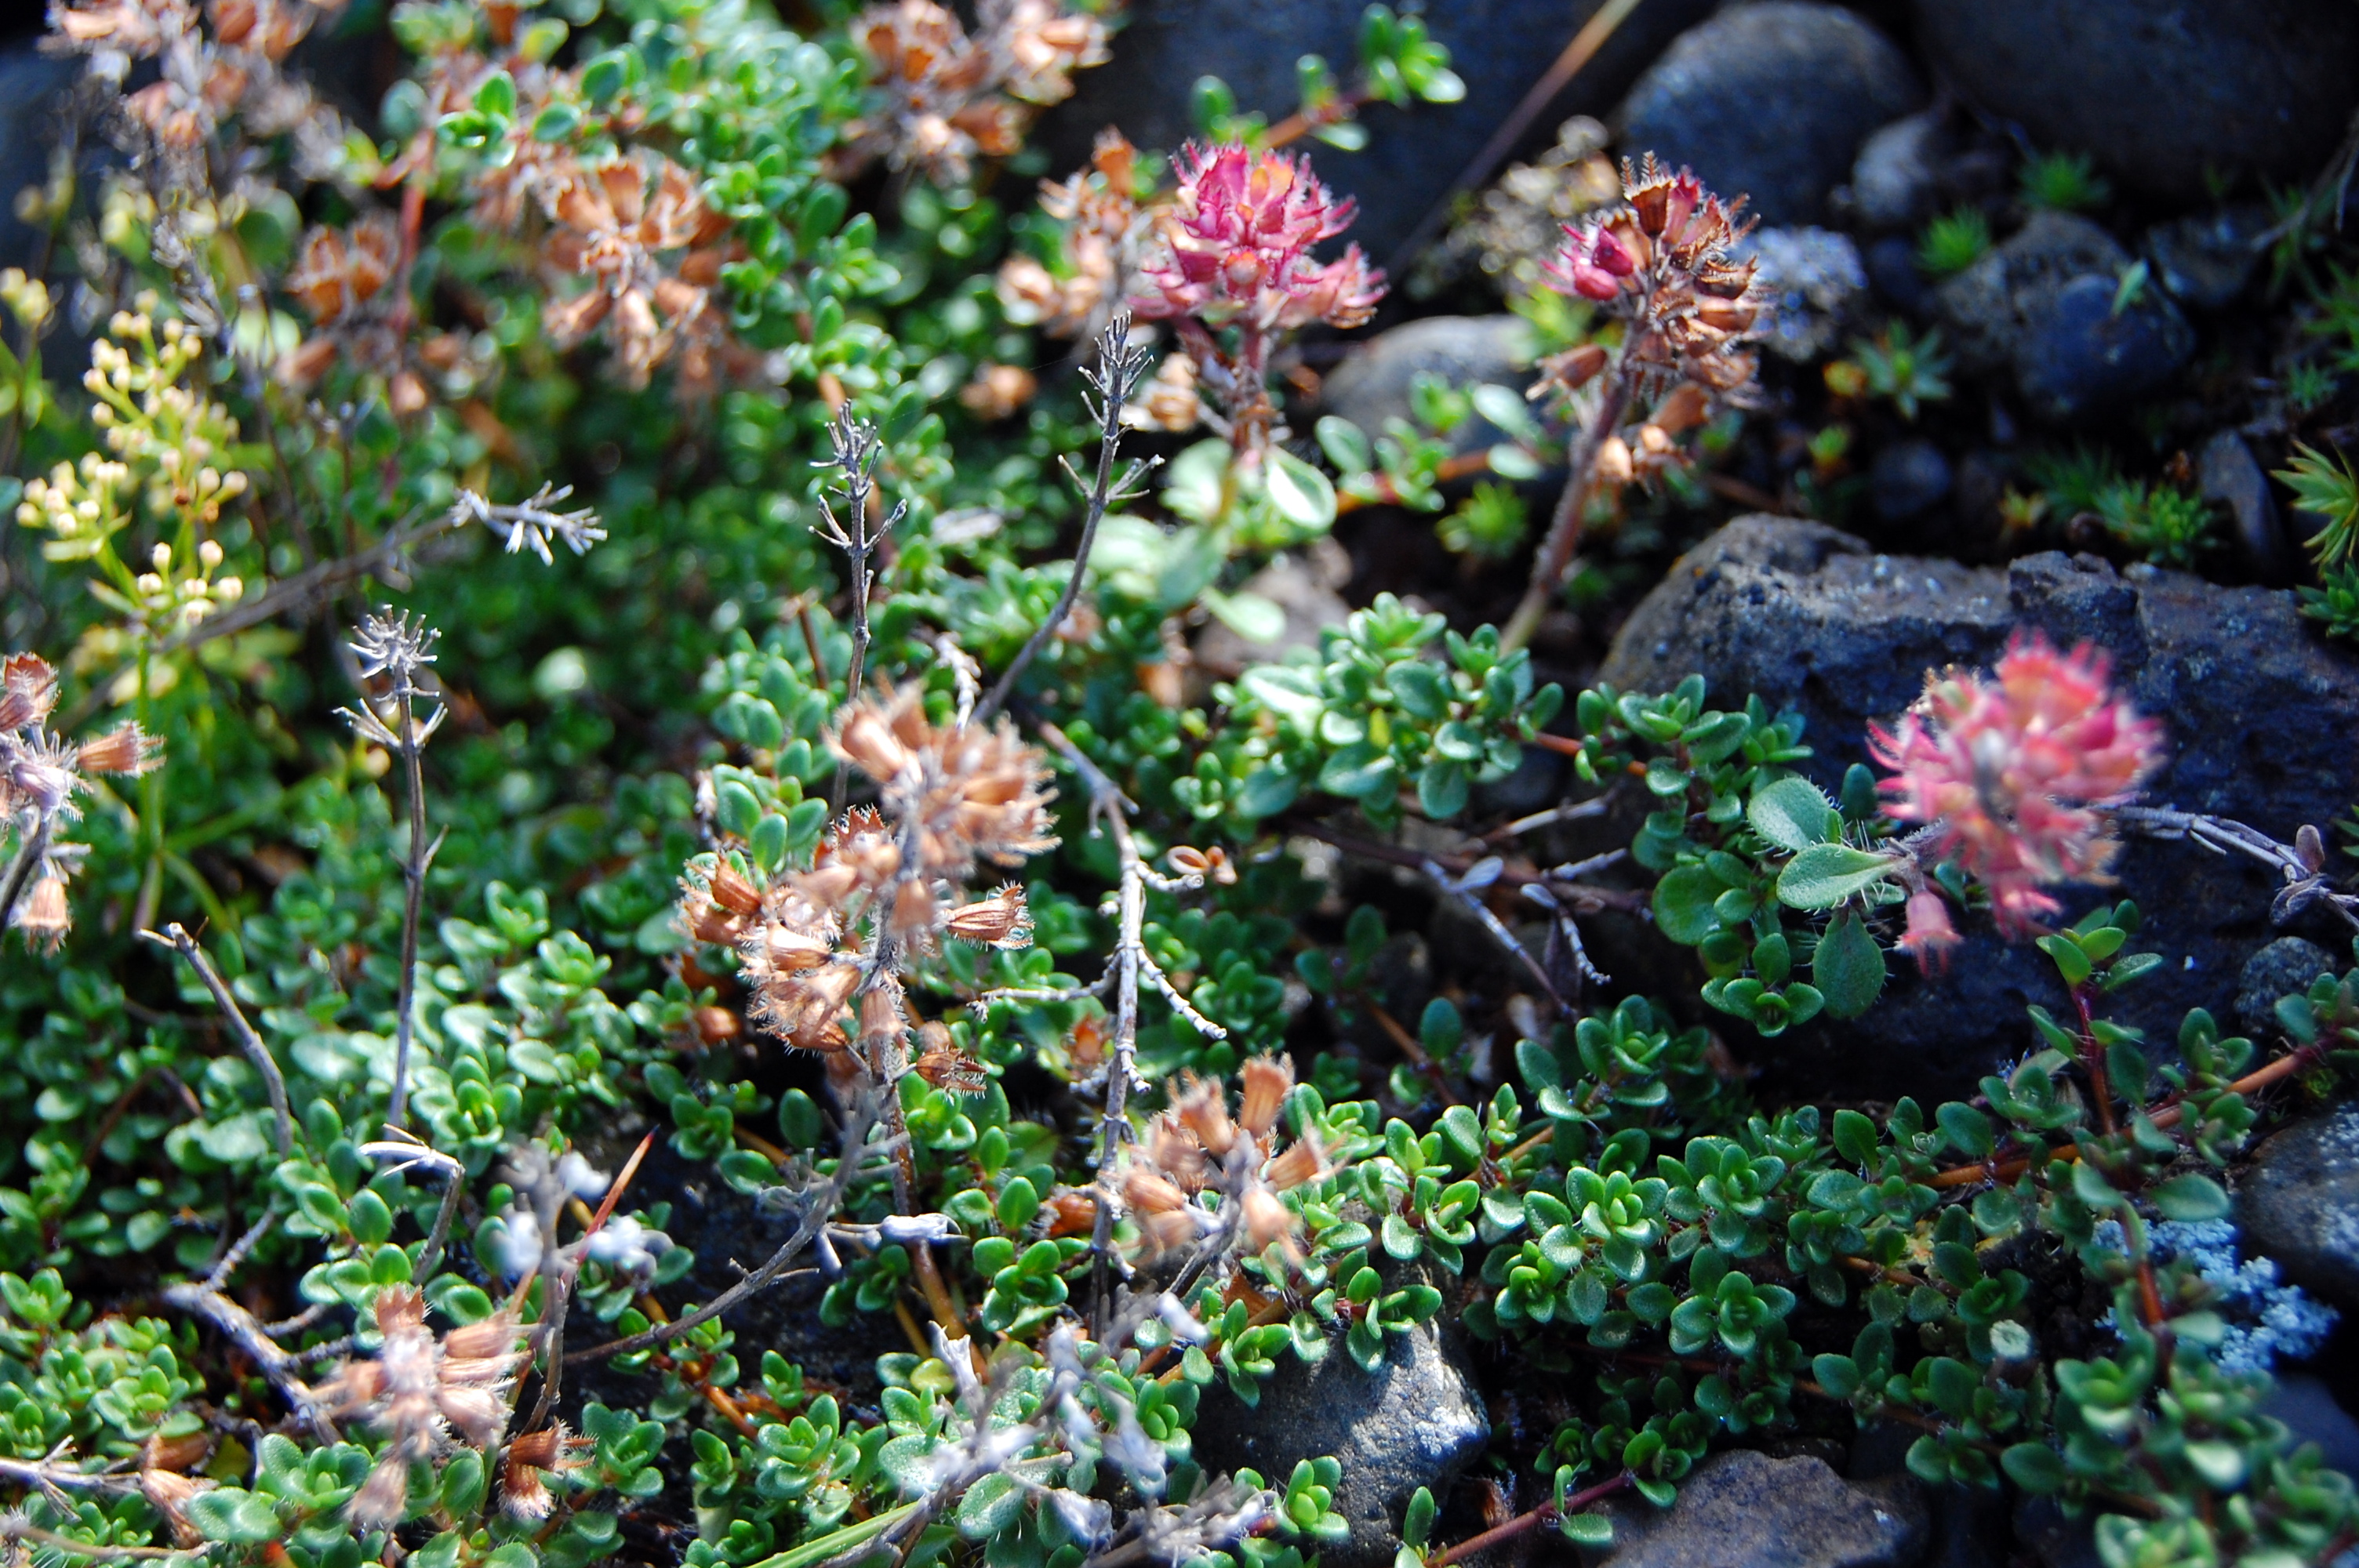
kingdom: Plantae
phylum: Tracheophyta
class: Magnoliopsida
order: Lamiales
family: Lamiaceae
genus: Thymus
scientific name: Thymus praecox
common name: Wild thyme
